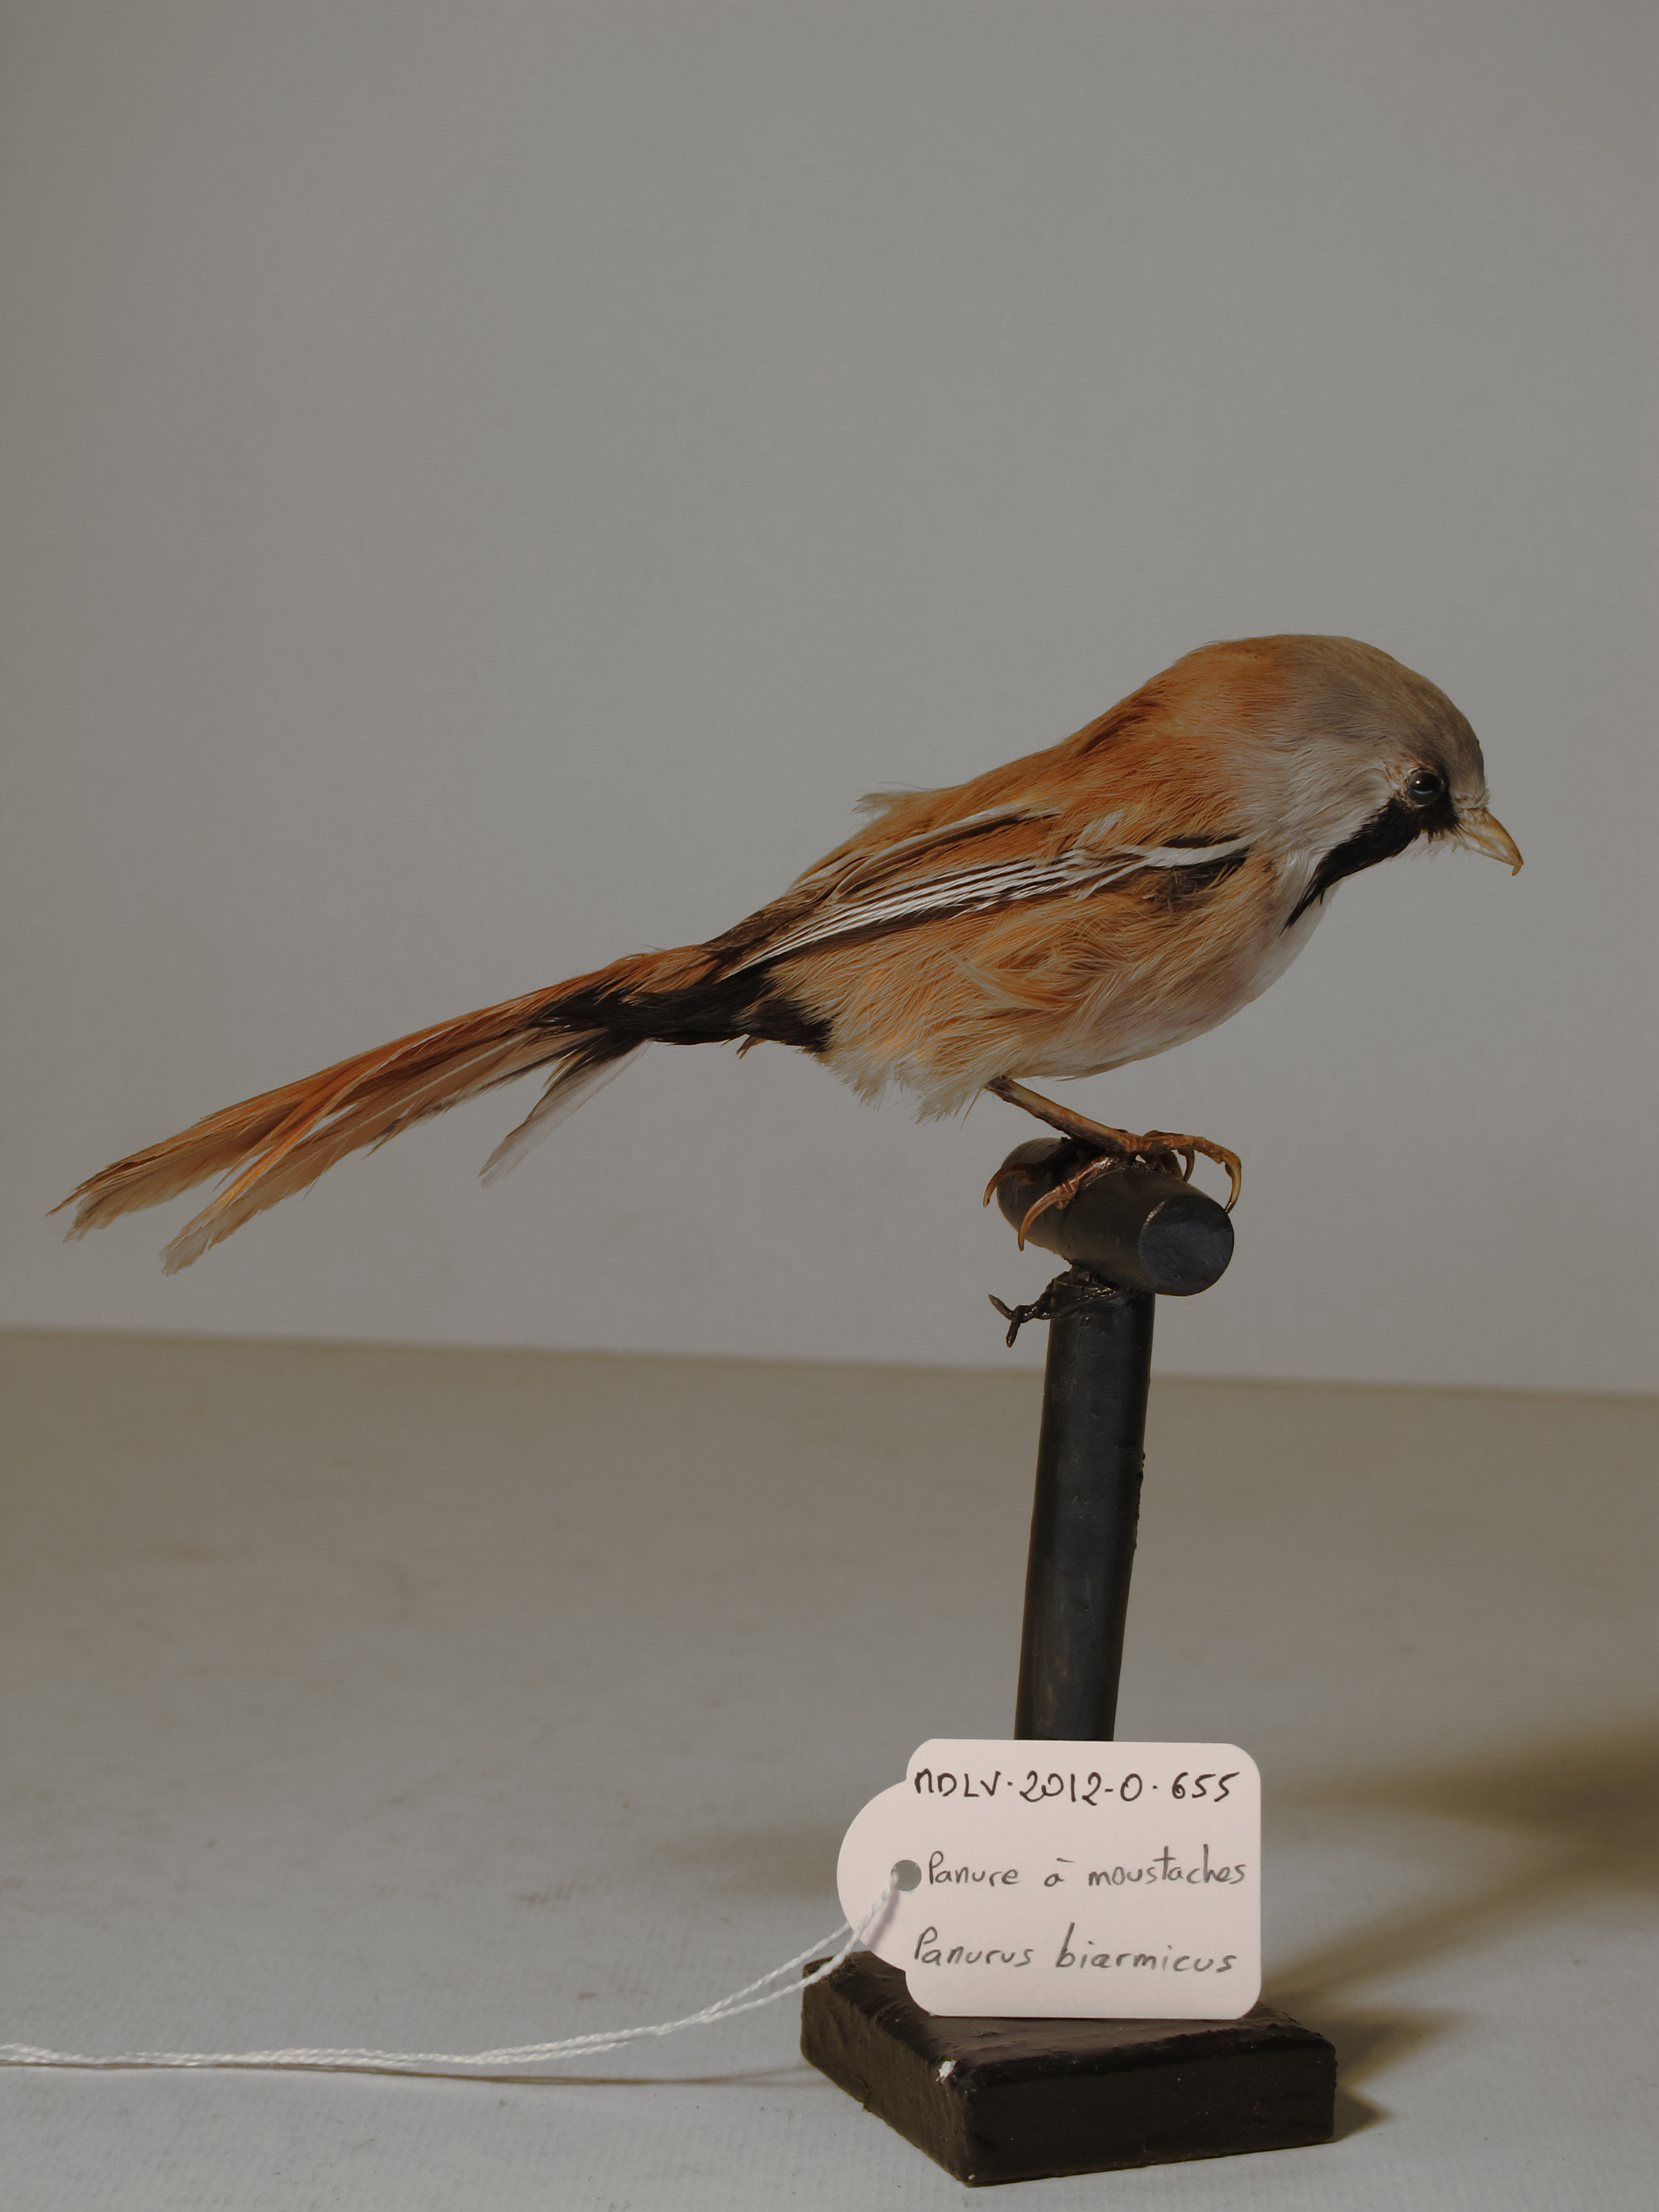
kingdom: Animalia
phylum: Chordata
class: Aves
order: Passeriformes
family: Panuridae
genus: Panurus
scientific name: Panurus biarmicus
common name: Bearded Parrotbill
